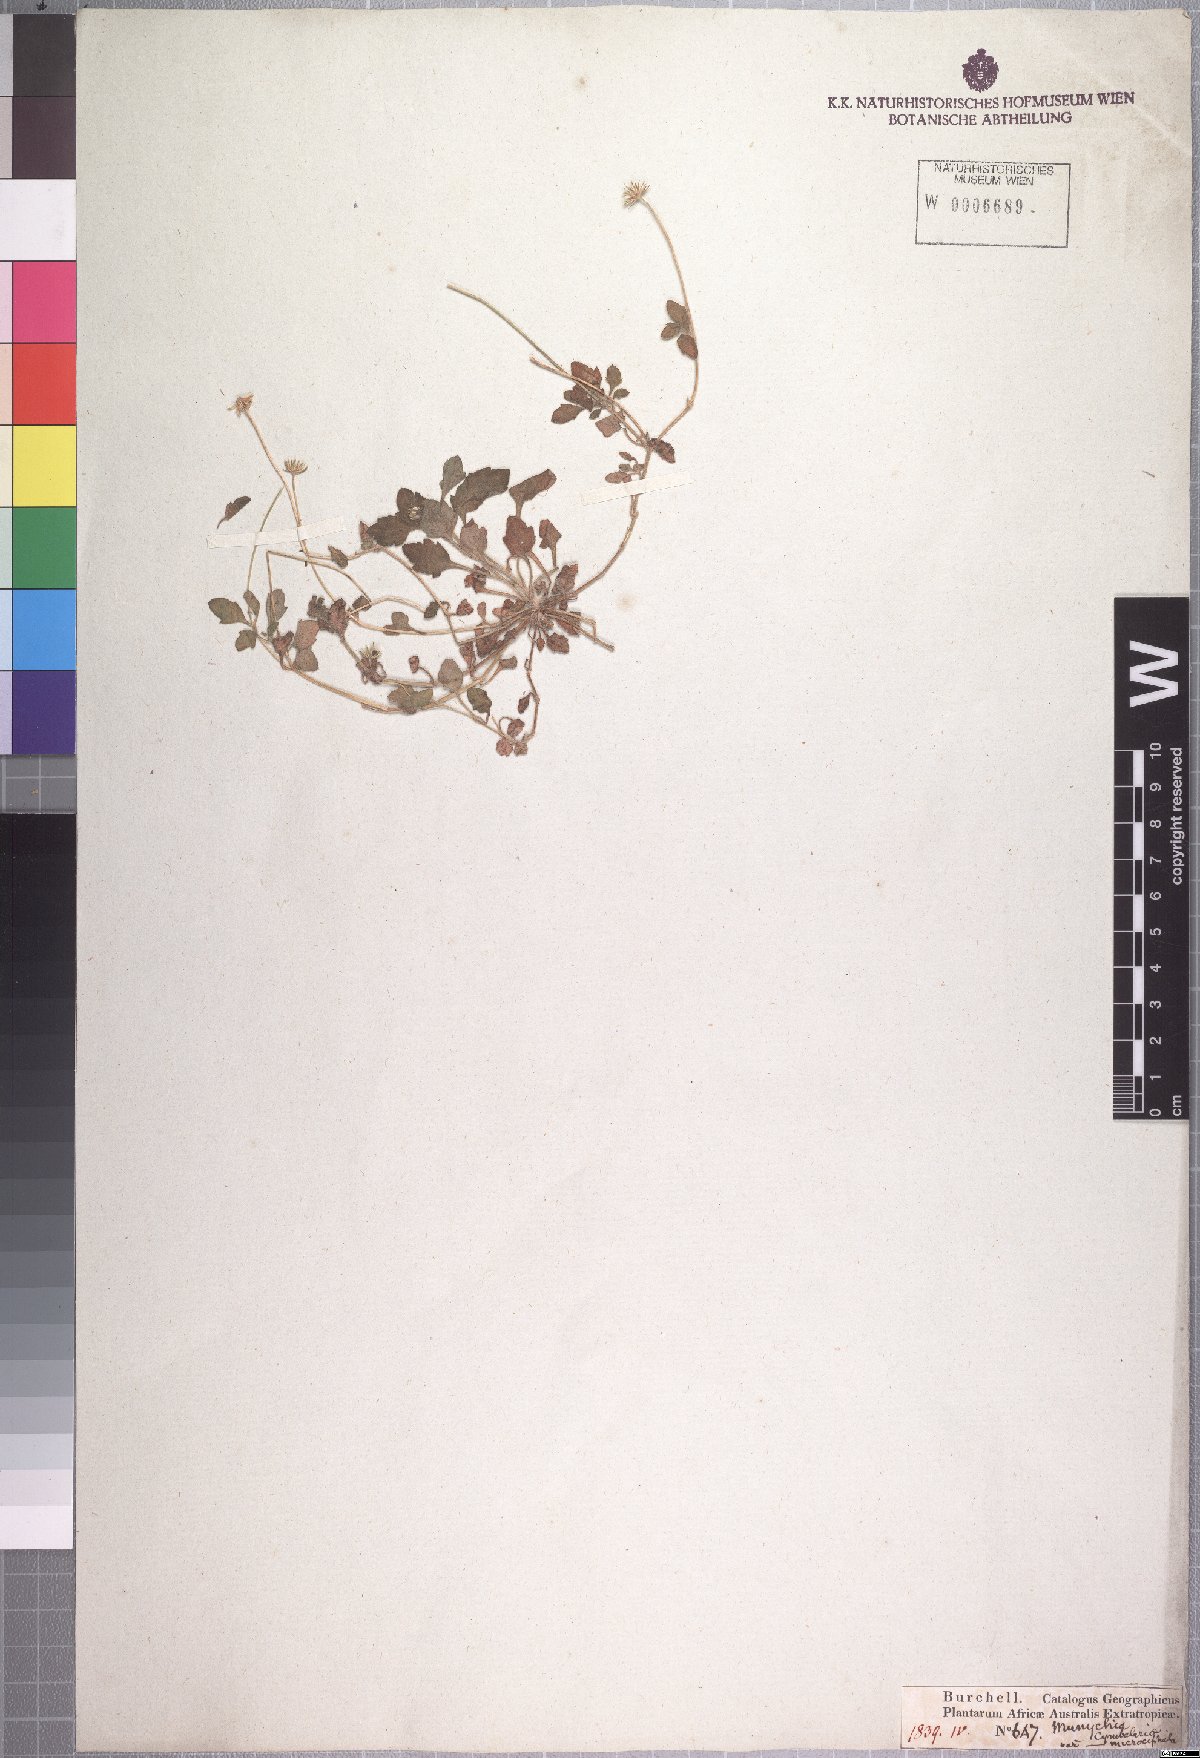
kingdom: Plantae
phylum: Tracheophyta
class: Magnoliopsida
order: Asterales
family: Asteraceae
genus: Felicia
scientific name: Felicia cymbalariae
